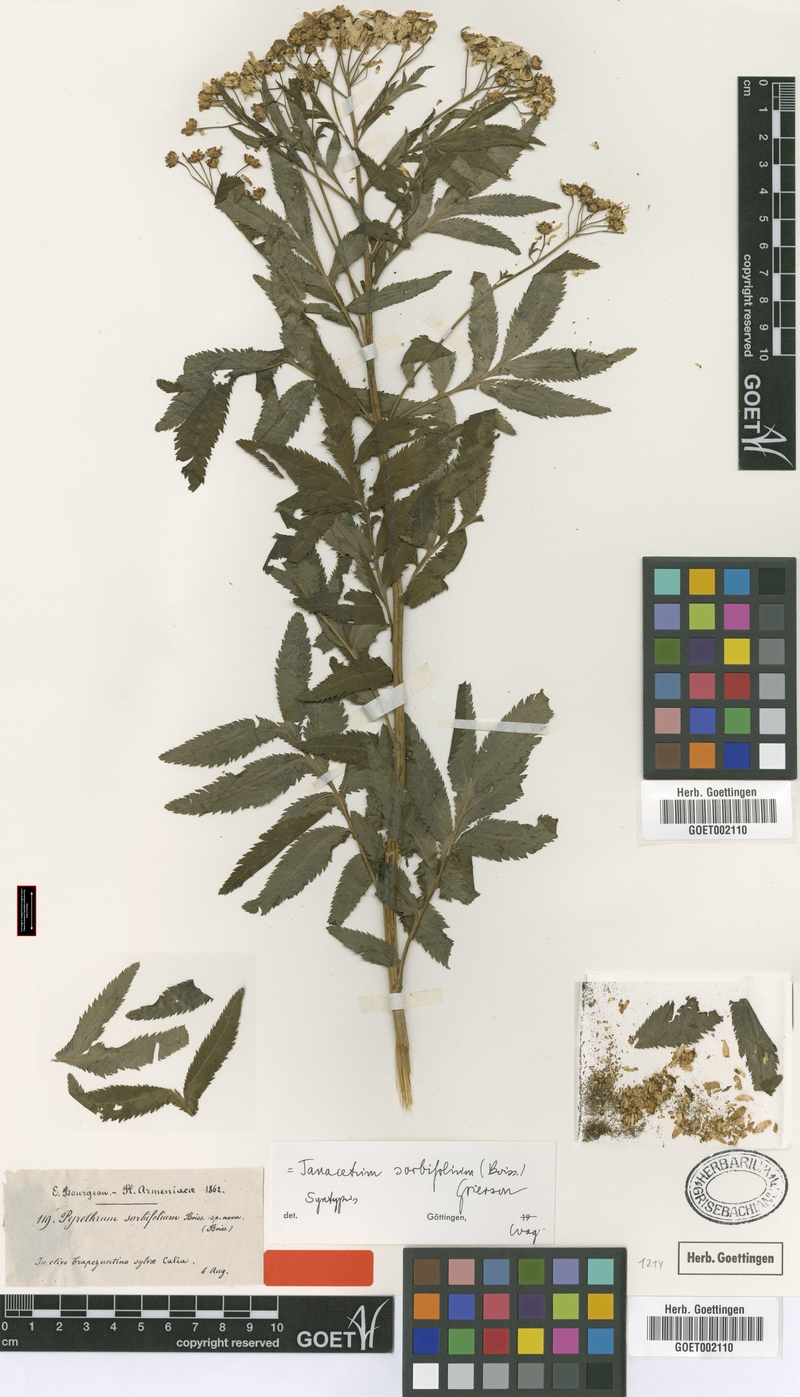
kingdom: Plantae
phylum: Tracheophyta
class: Magnoliopsida
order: Asterales
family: Asteraceae
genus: Tanacetum
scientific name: Tanacetum sorbifolium
